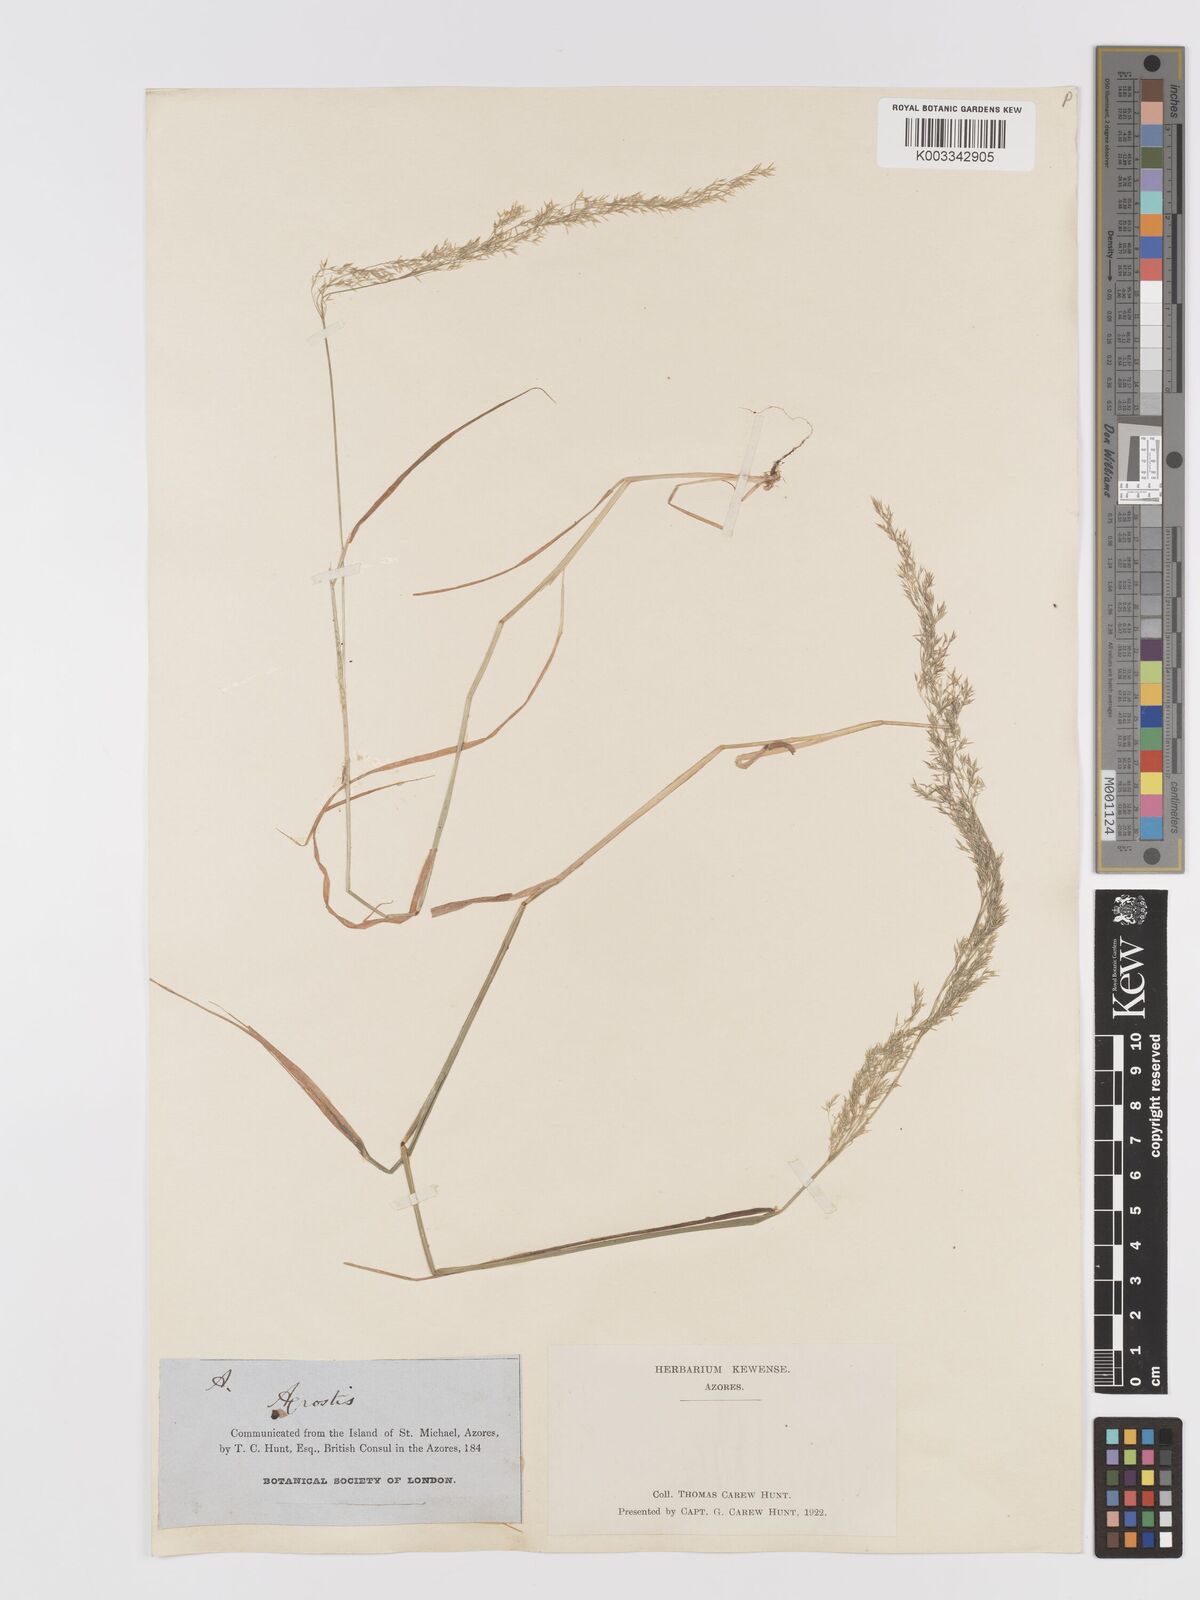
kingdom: Plantae
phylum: Tracheophyta
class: Liliopsida
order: Poales
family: Poaceae
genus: Agrostis
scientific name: Agrostis
